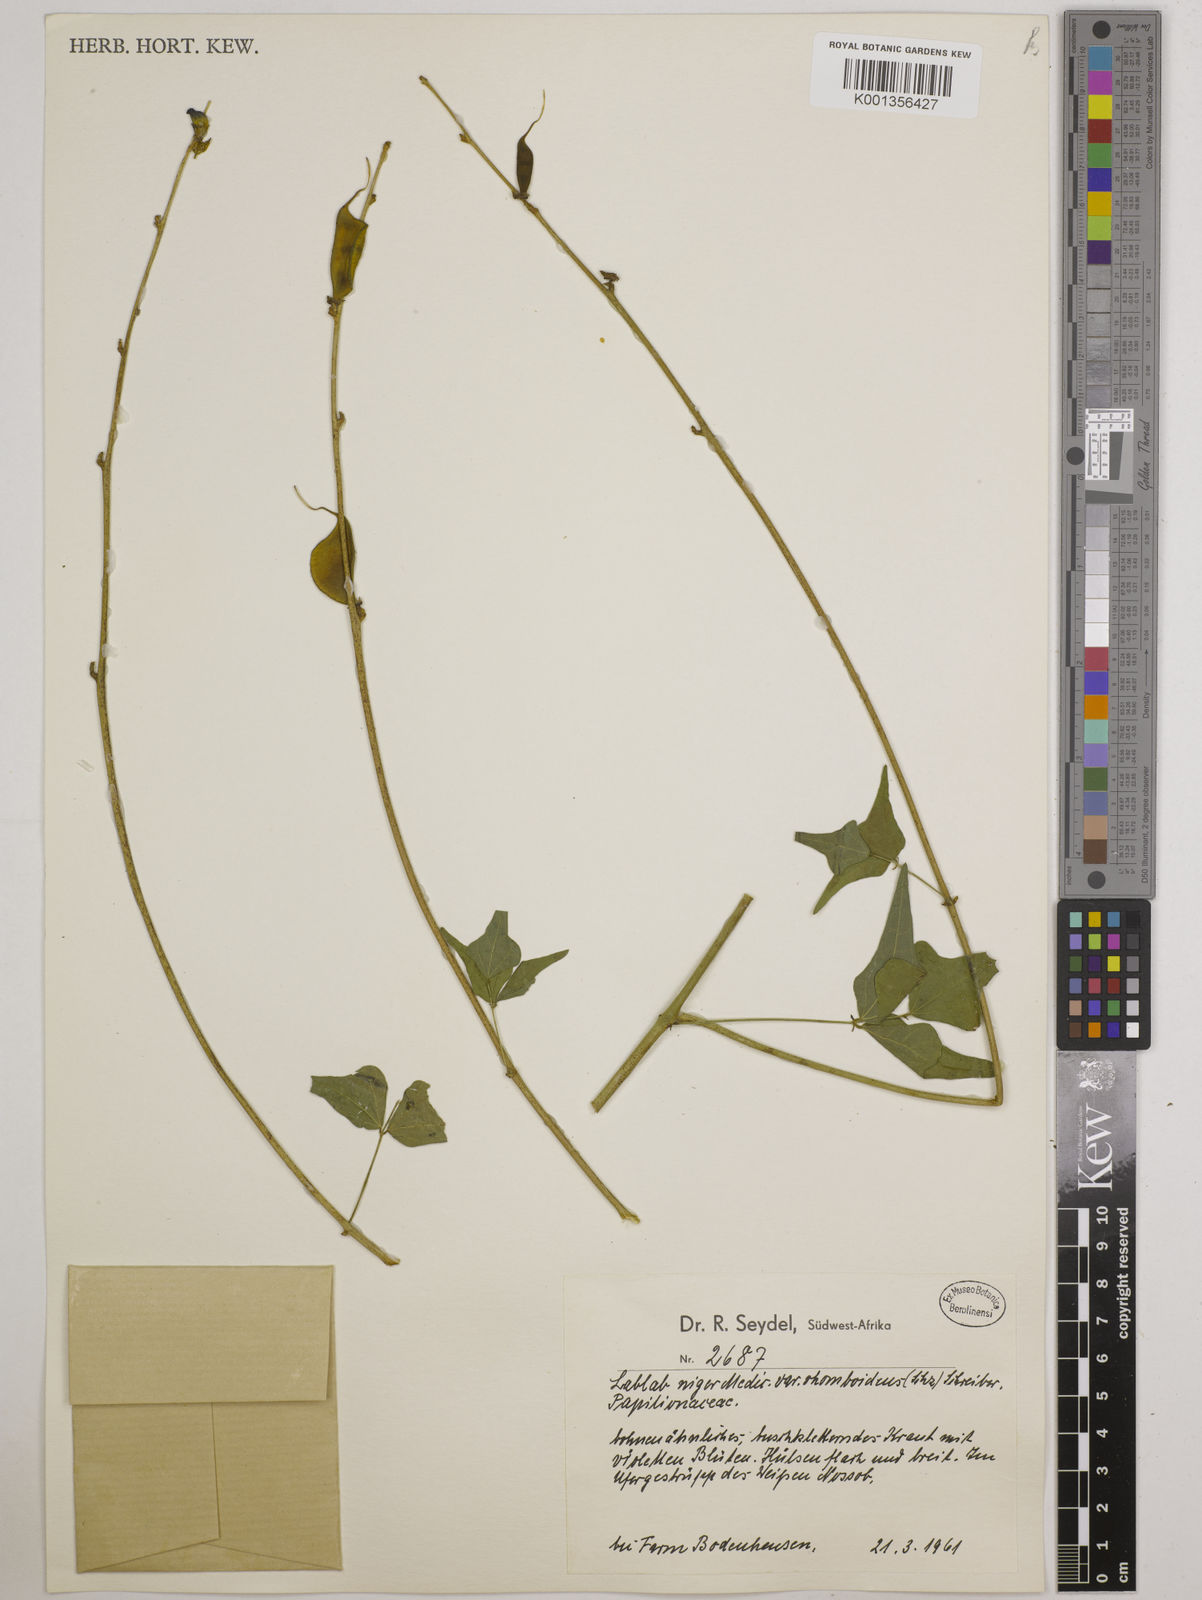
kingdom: Plantae
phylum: Tracheophyta
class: Magnoliopsida
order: Fabales
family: Fabaceae
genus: Lablab
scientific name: Lablab purpureus
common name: Lablab-bean
